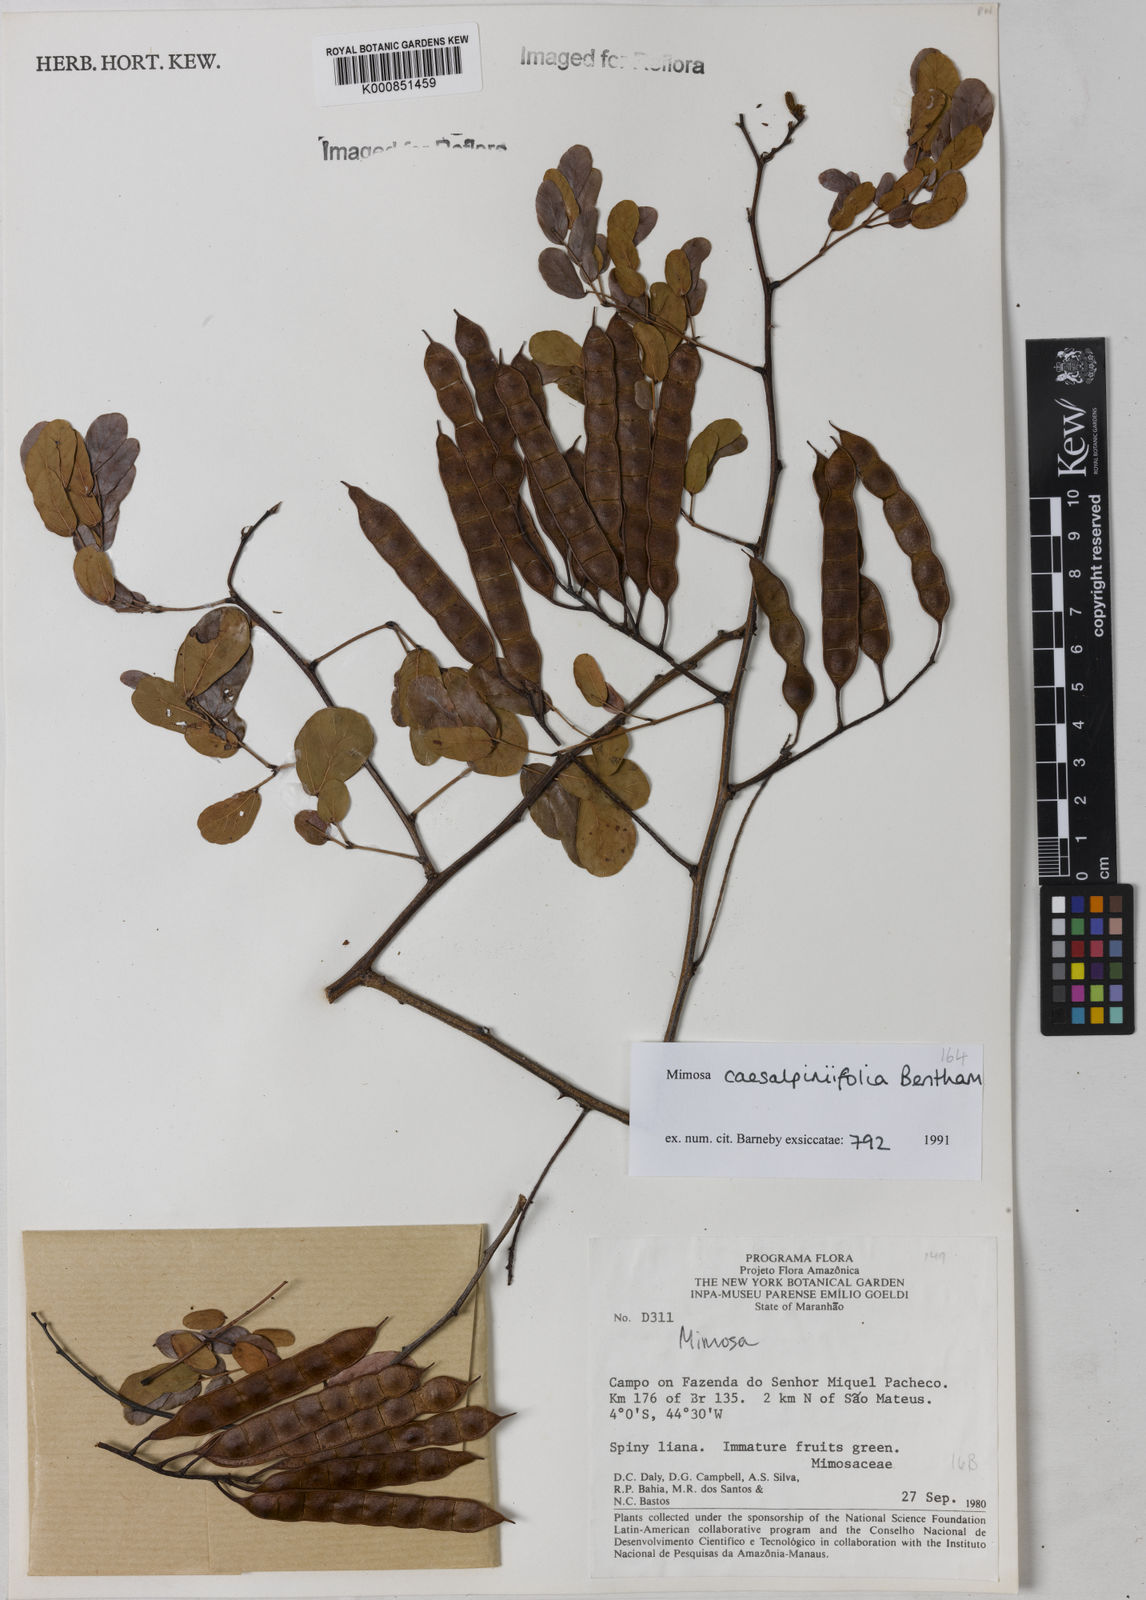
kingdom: Plantae
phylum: Tracheophyta
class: Magnoliopsida
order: Fabales
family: Fabaceae
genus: Mimosa
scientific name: Mimosa caesalpiniifolia
